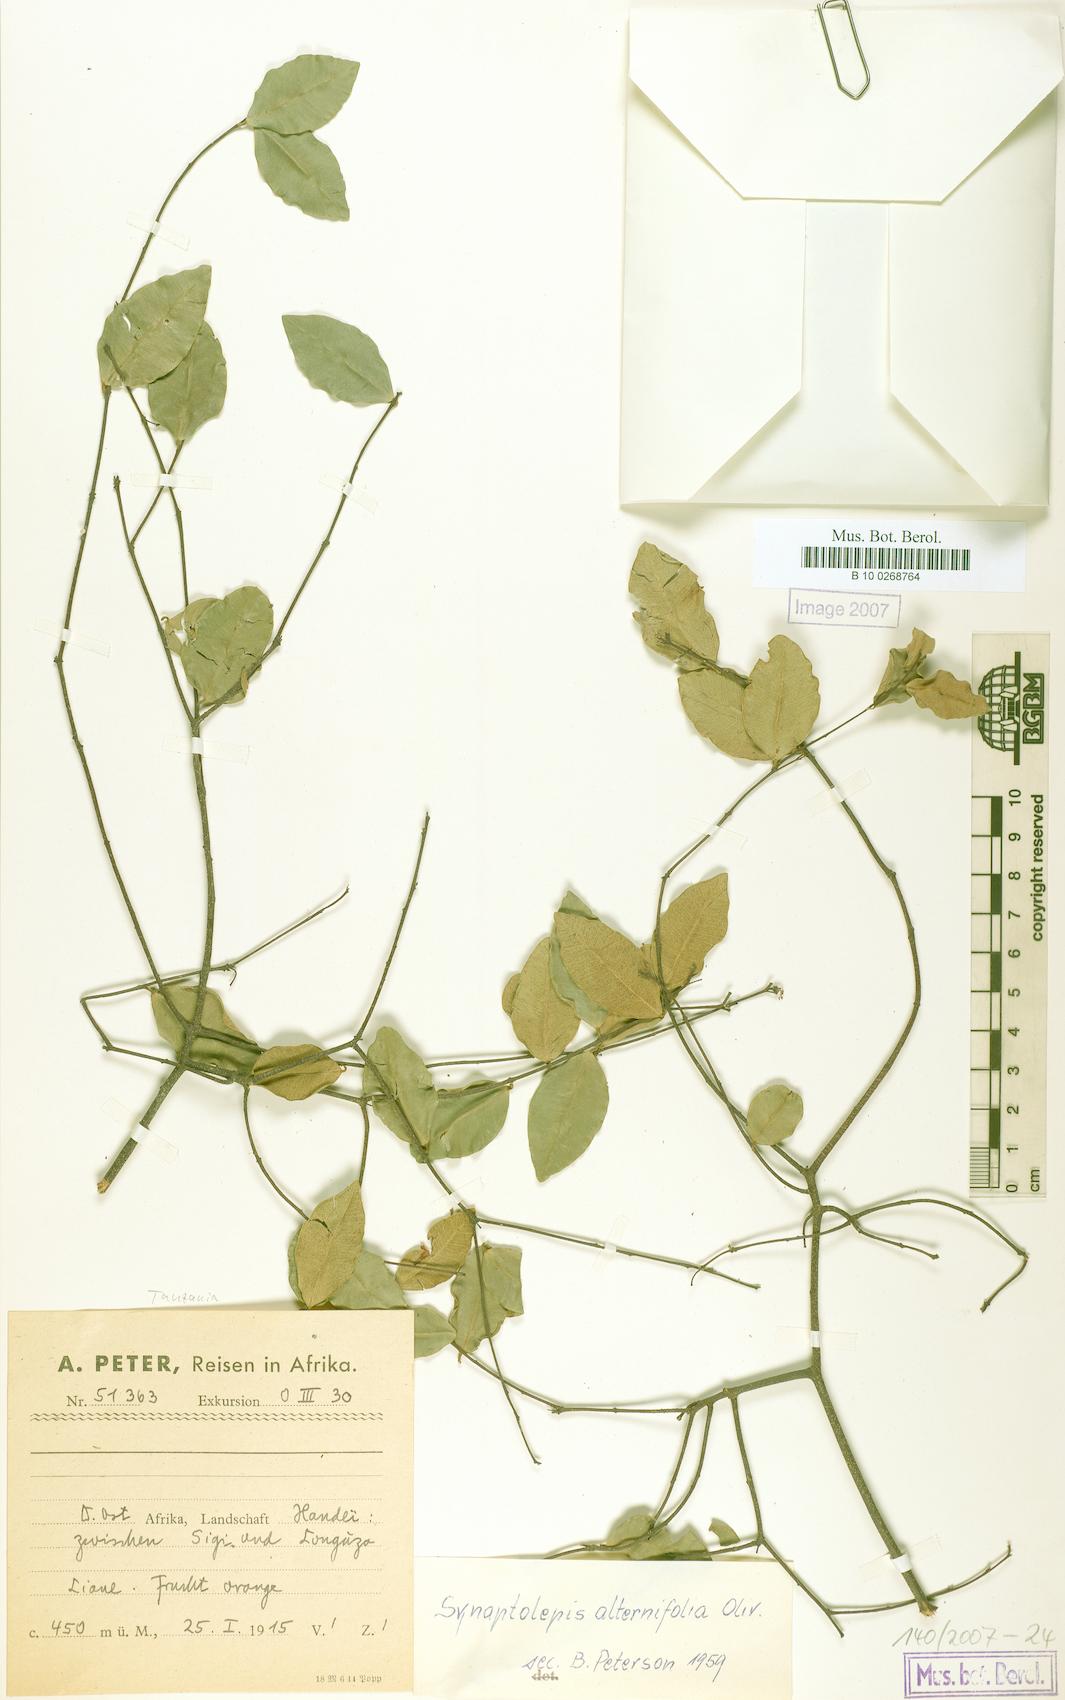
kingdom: Plantae
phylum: Tracheophyta
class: Magnoliopsida
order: Malvales
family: Thymelaeaceae
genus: Synaptolepis
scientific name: Synaptolepis alternifolia
